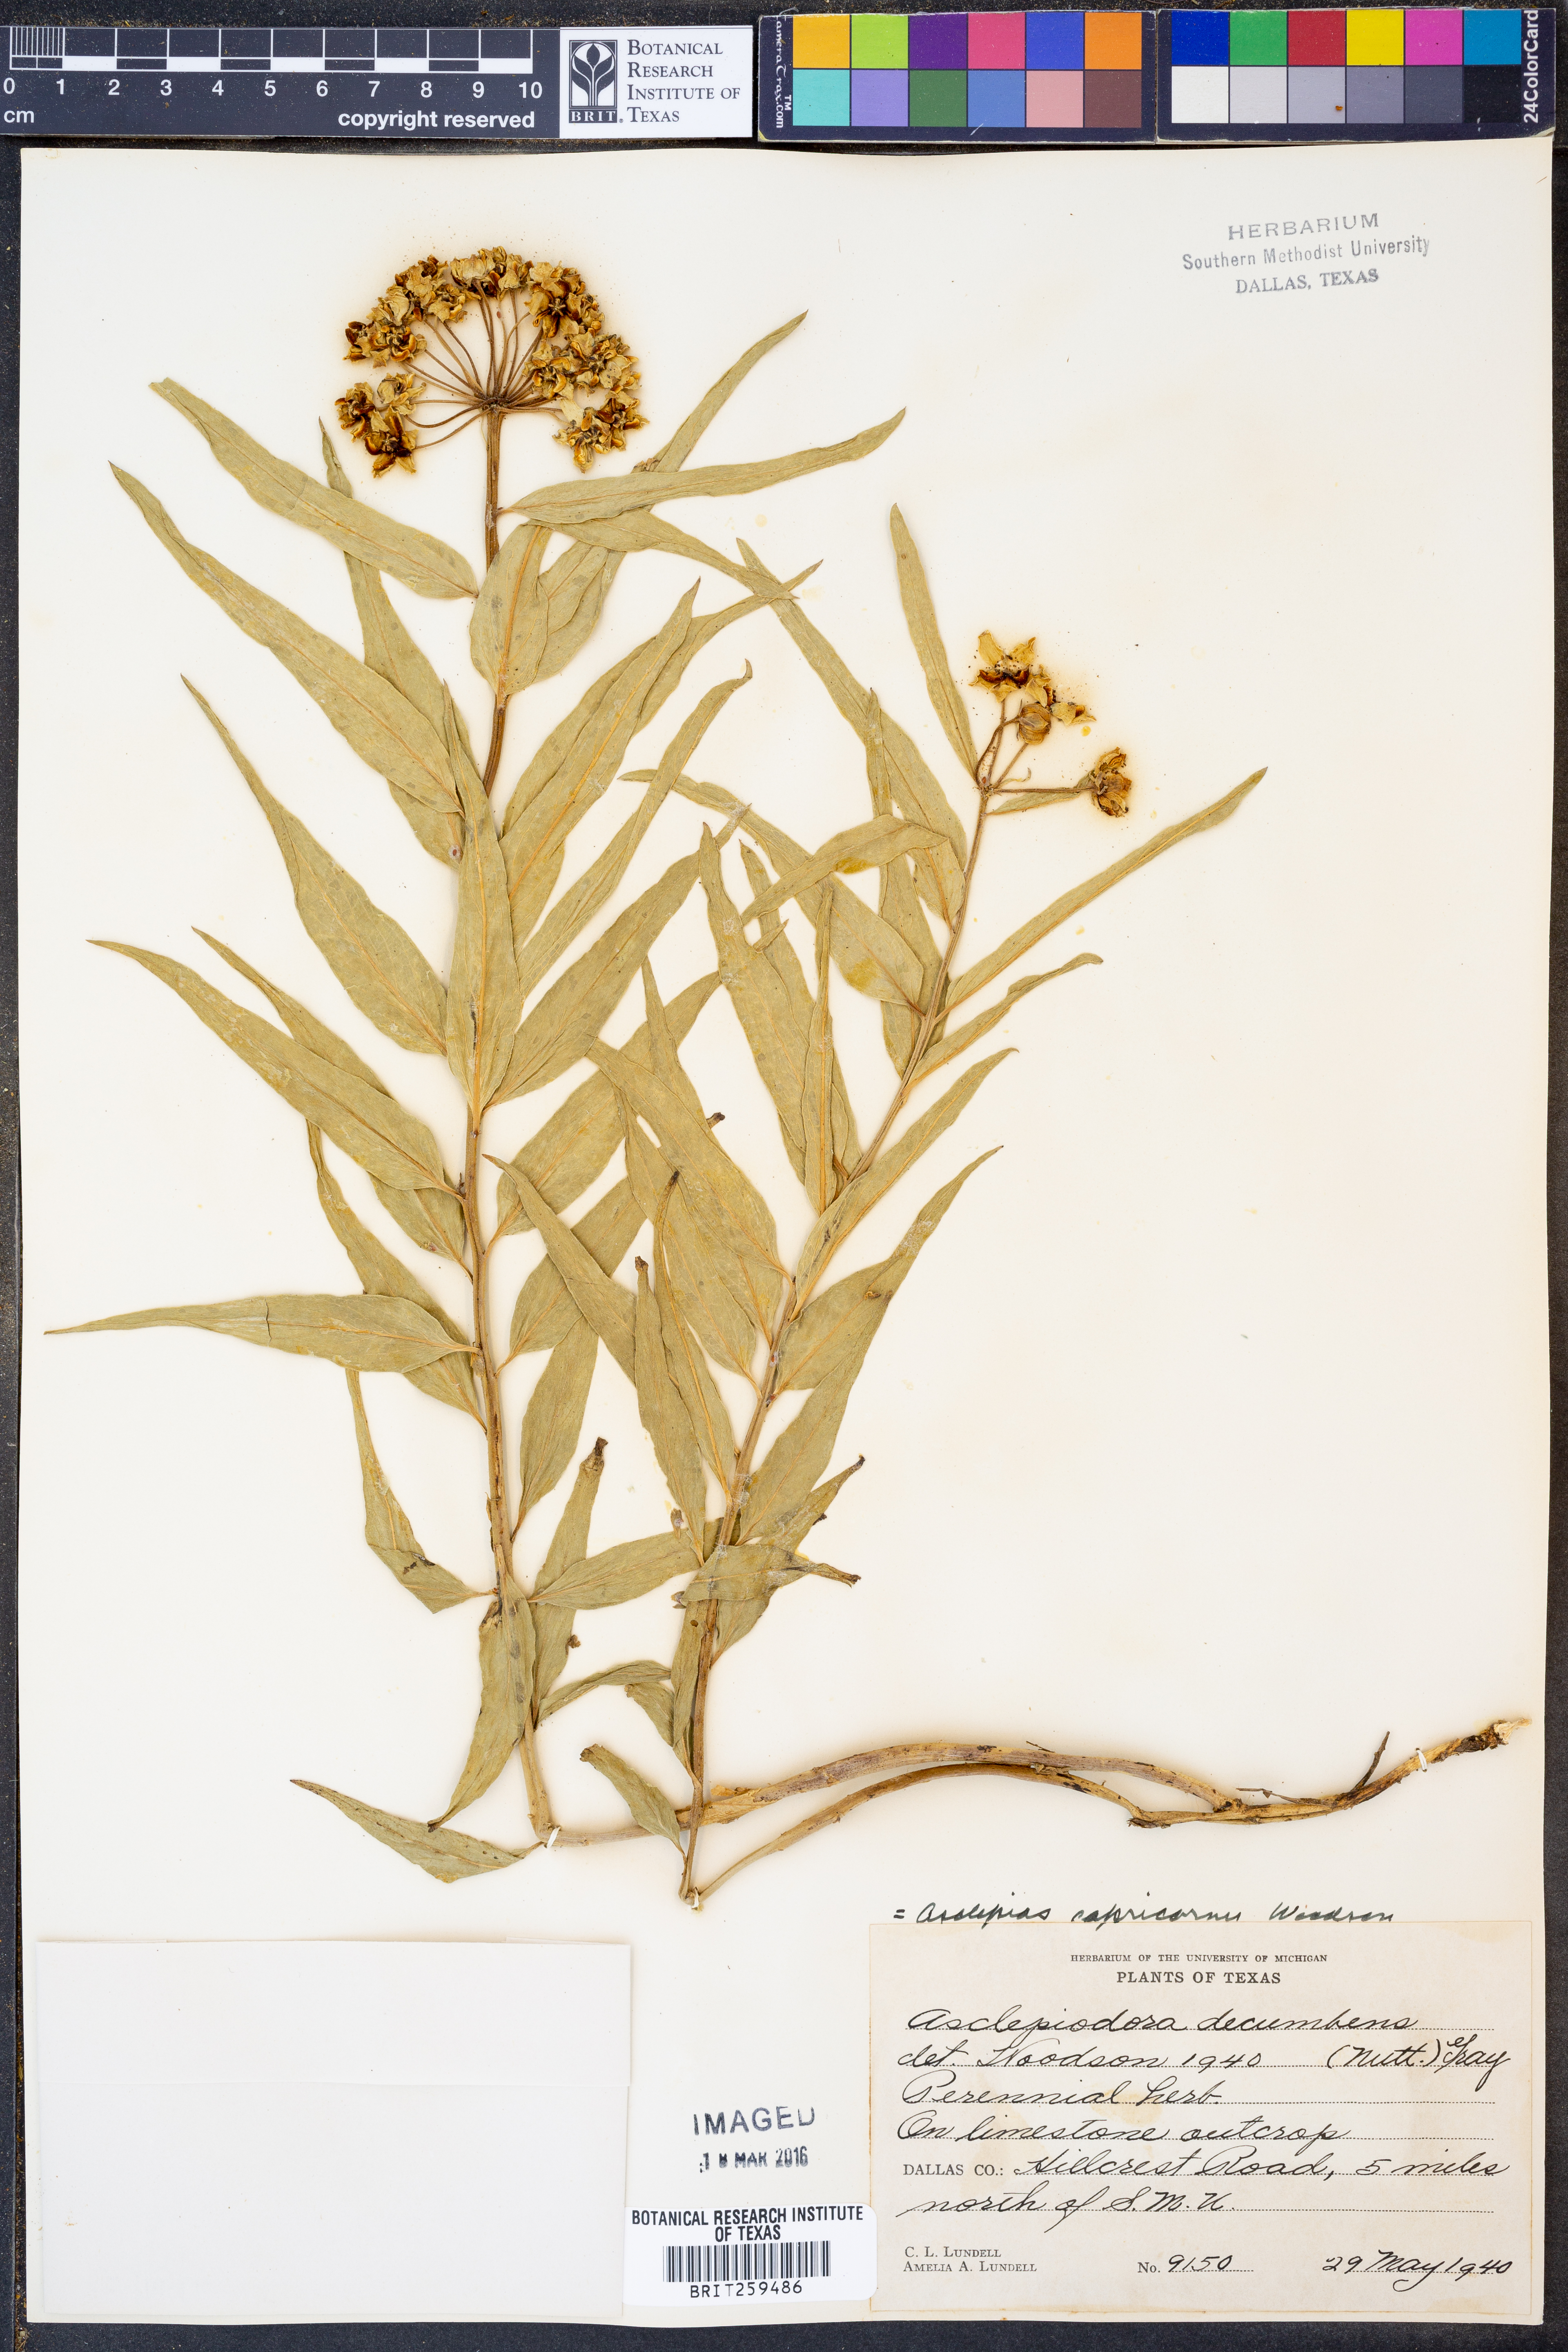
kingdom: Plantae
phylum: Tracheophyta
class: Magnoliopsida
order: Gentianales
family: Apocynaceae
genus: Asclepias
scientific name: Asclepias asperula
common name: Antelope horns
